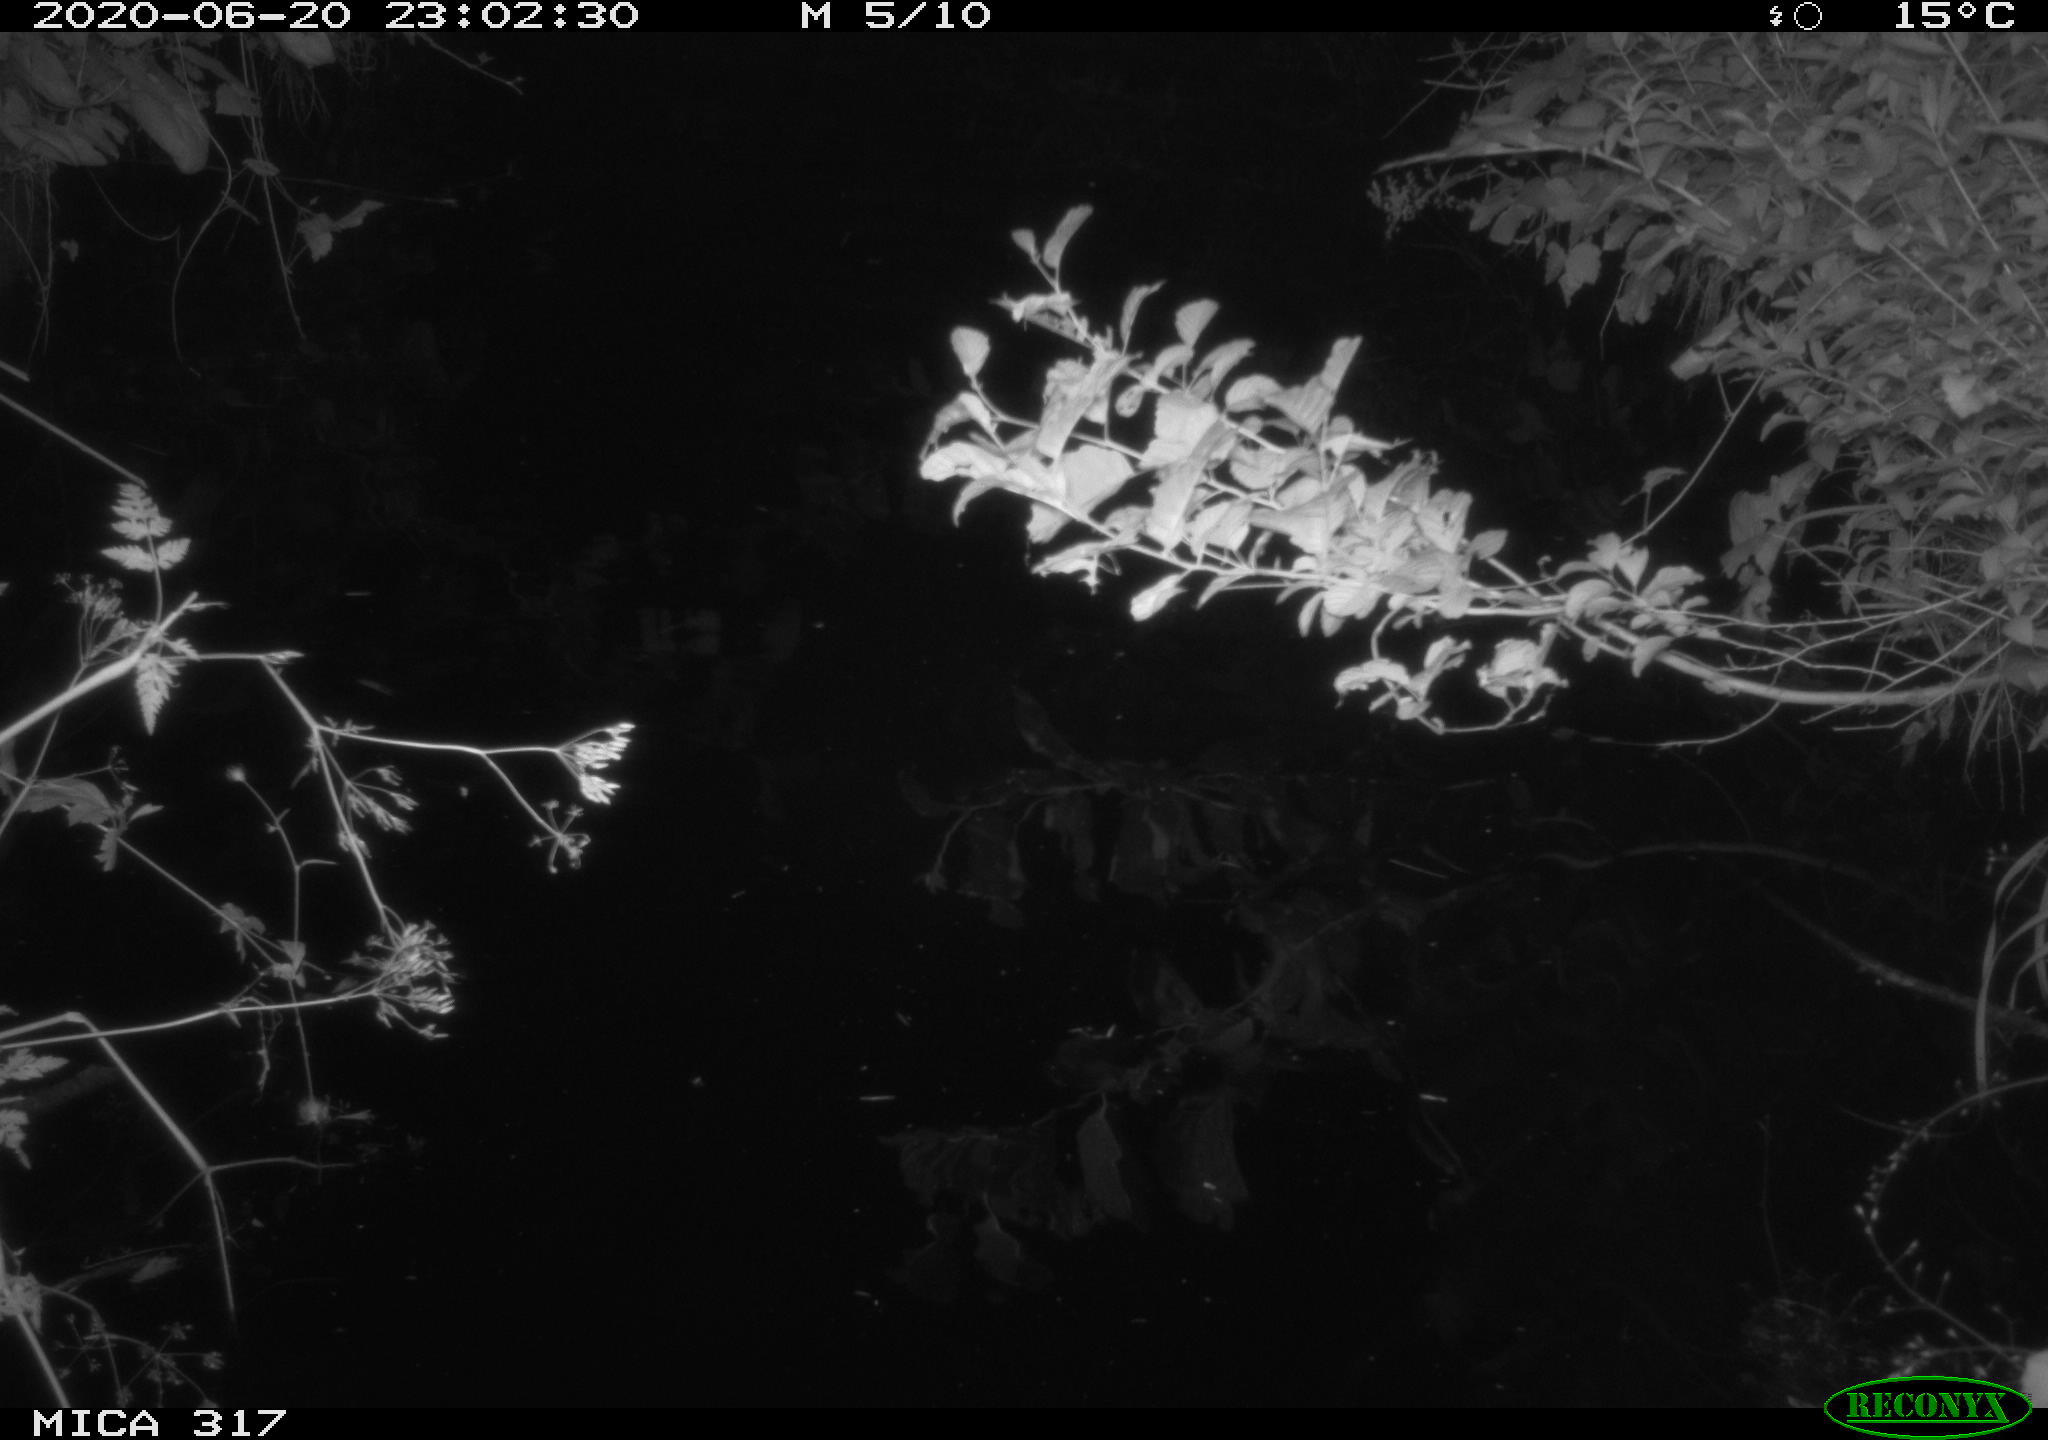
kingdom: Animalia
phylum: Chordata
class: Aves
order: Anseriformes
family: Anatidae
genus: Anas
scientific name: Anas platyrhynchos
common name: Mallard
